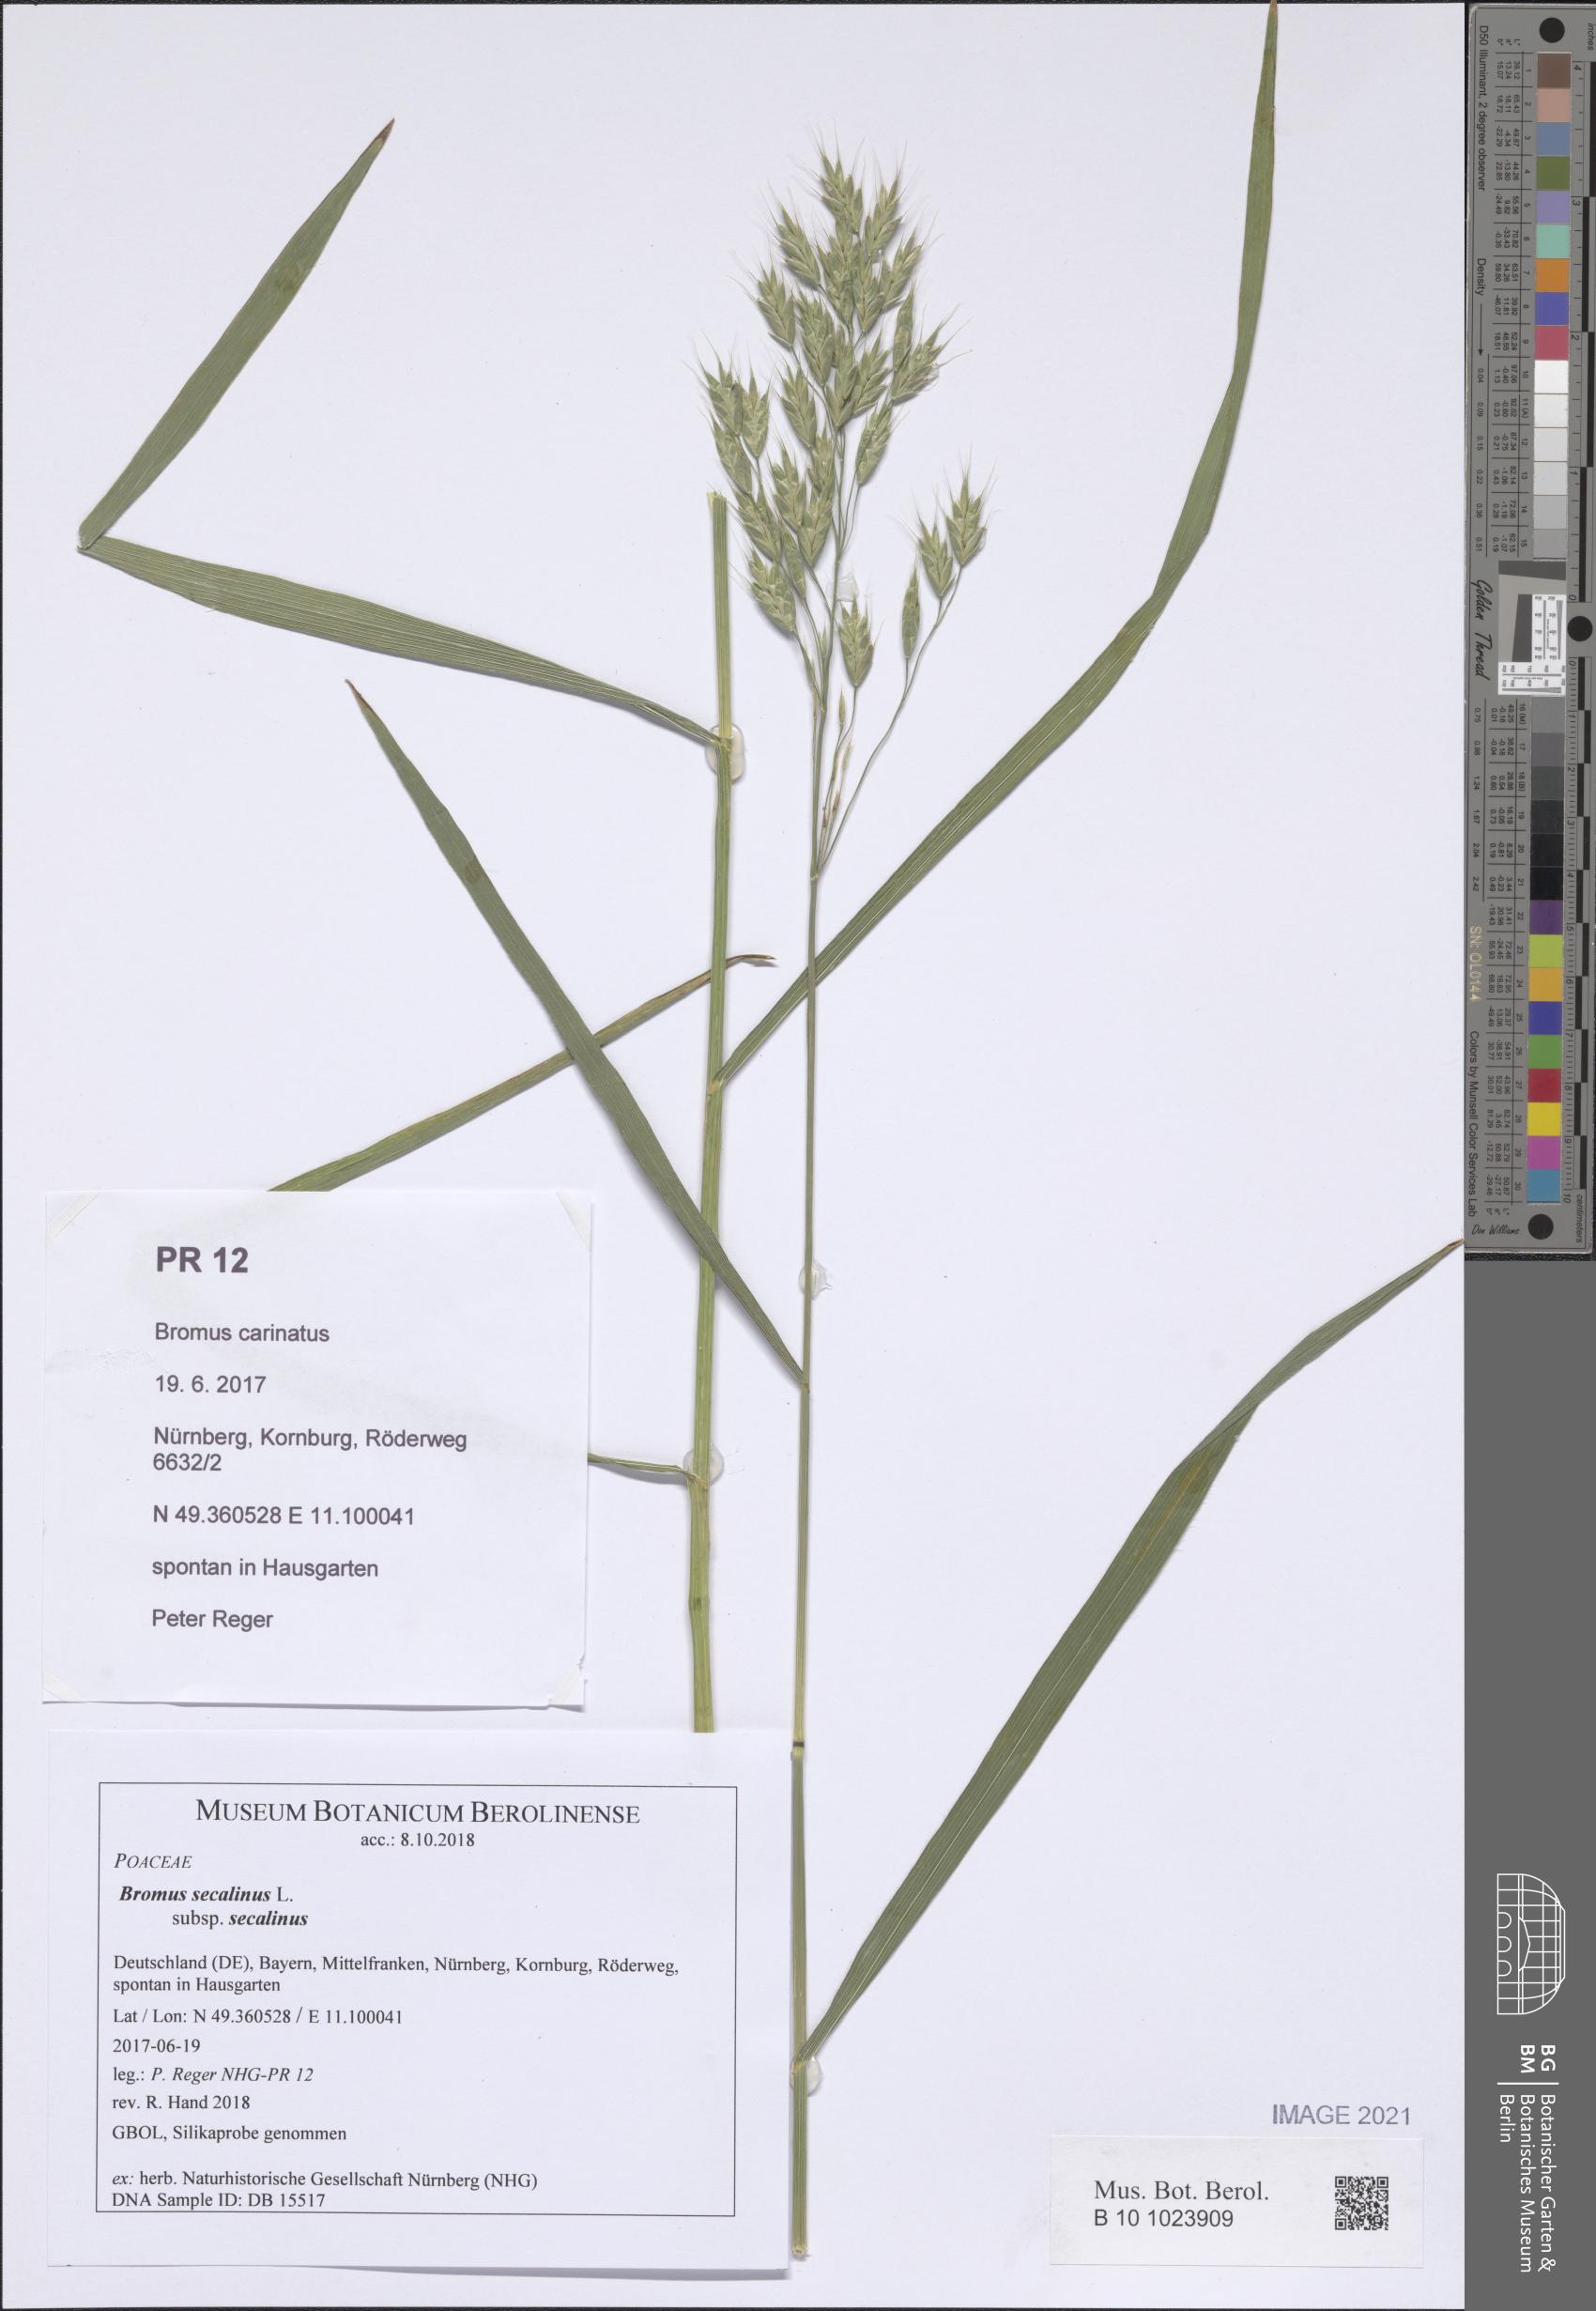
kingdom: Plantae
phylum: Tracheophyta
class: Liliopsida
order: Poales
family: Poaceae
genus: Bromus
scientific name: Bromus secalinus
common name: Rye brome
